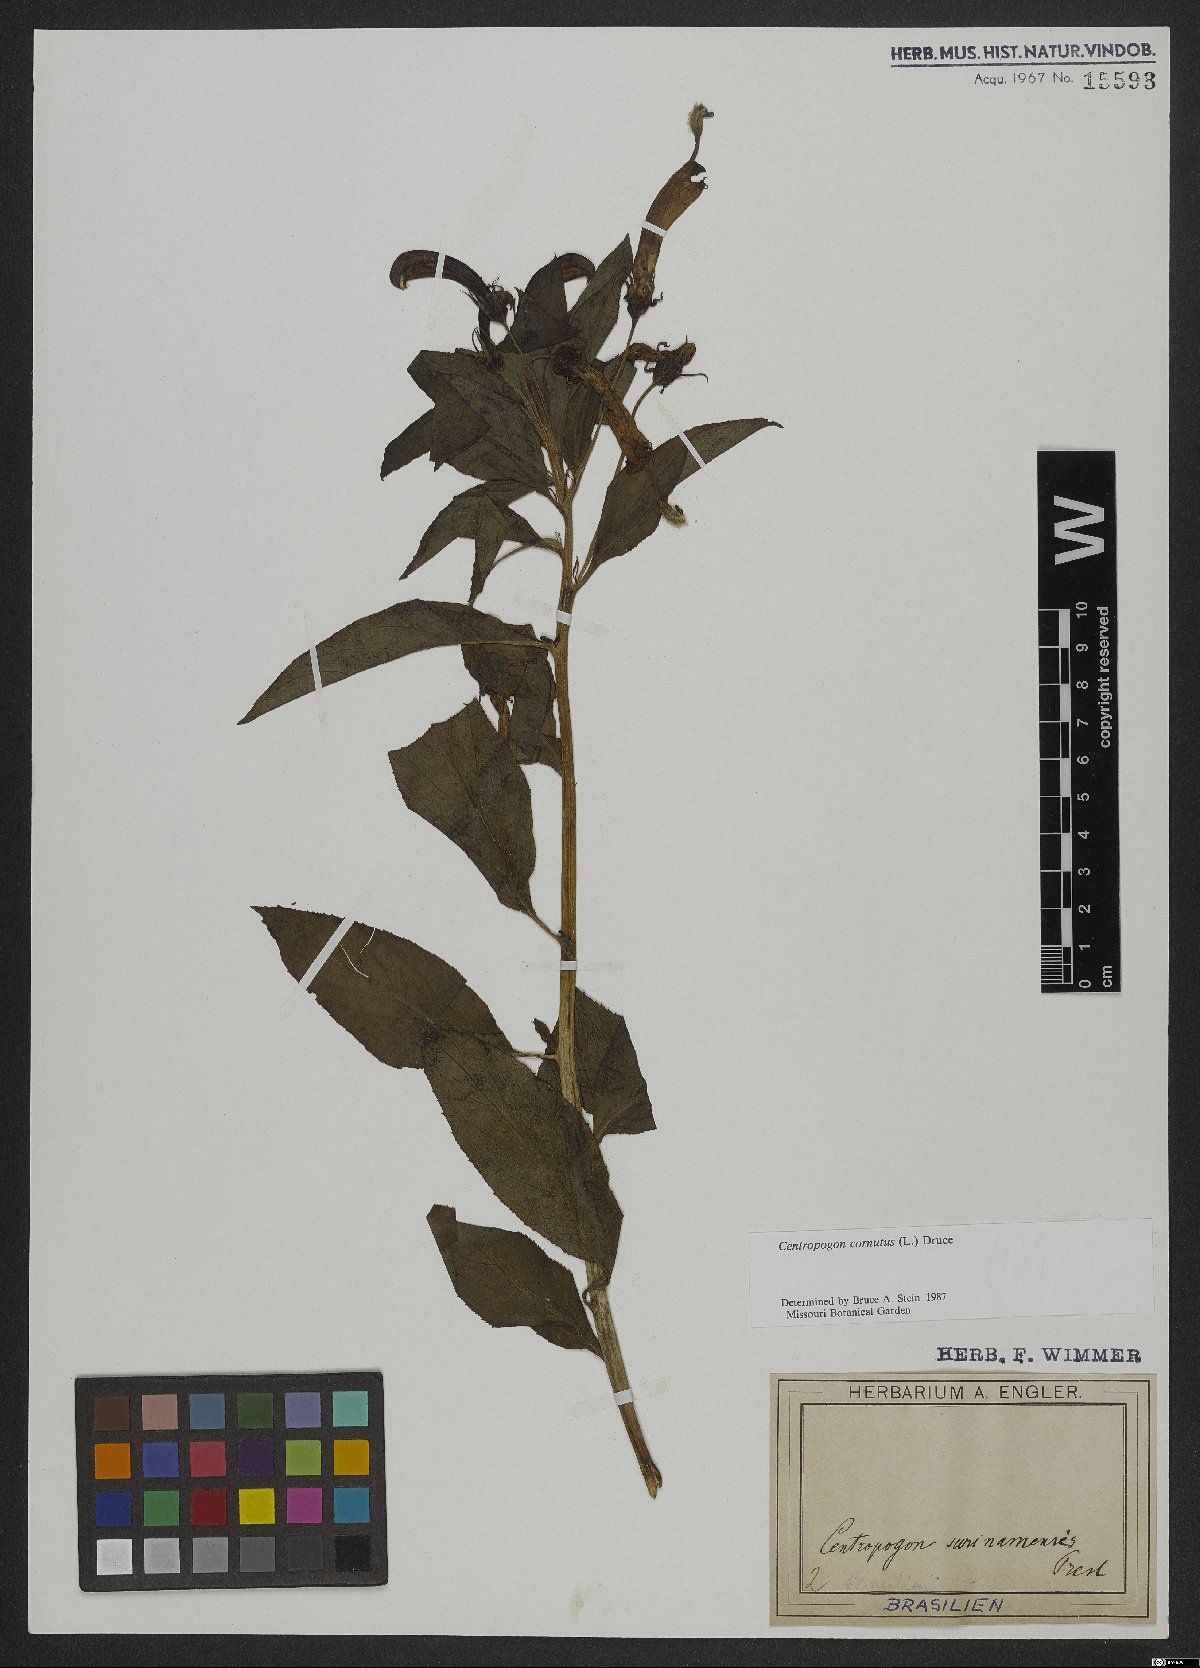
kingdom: Plantae
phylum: Tracheophyta
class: Magnoliopsida
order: Asterales
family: Campanulaceae
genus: Centropogon
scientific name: Centropogon cornutus
